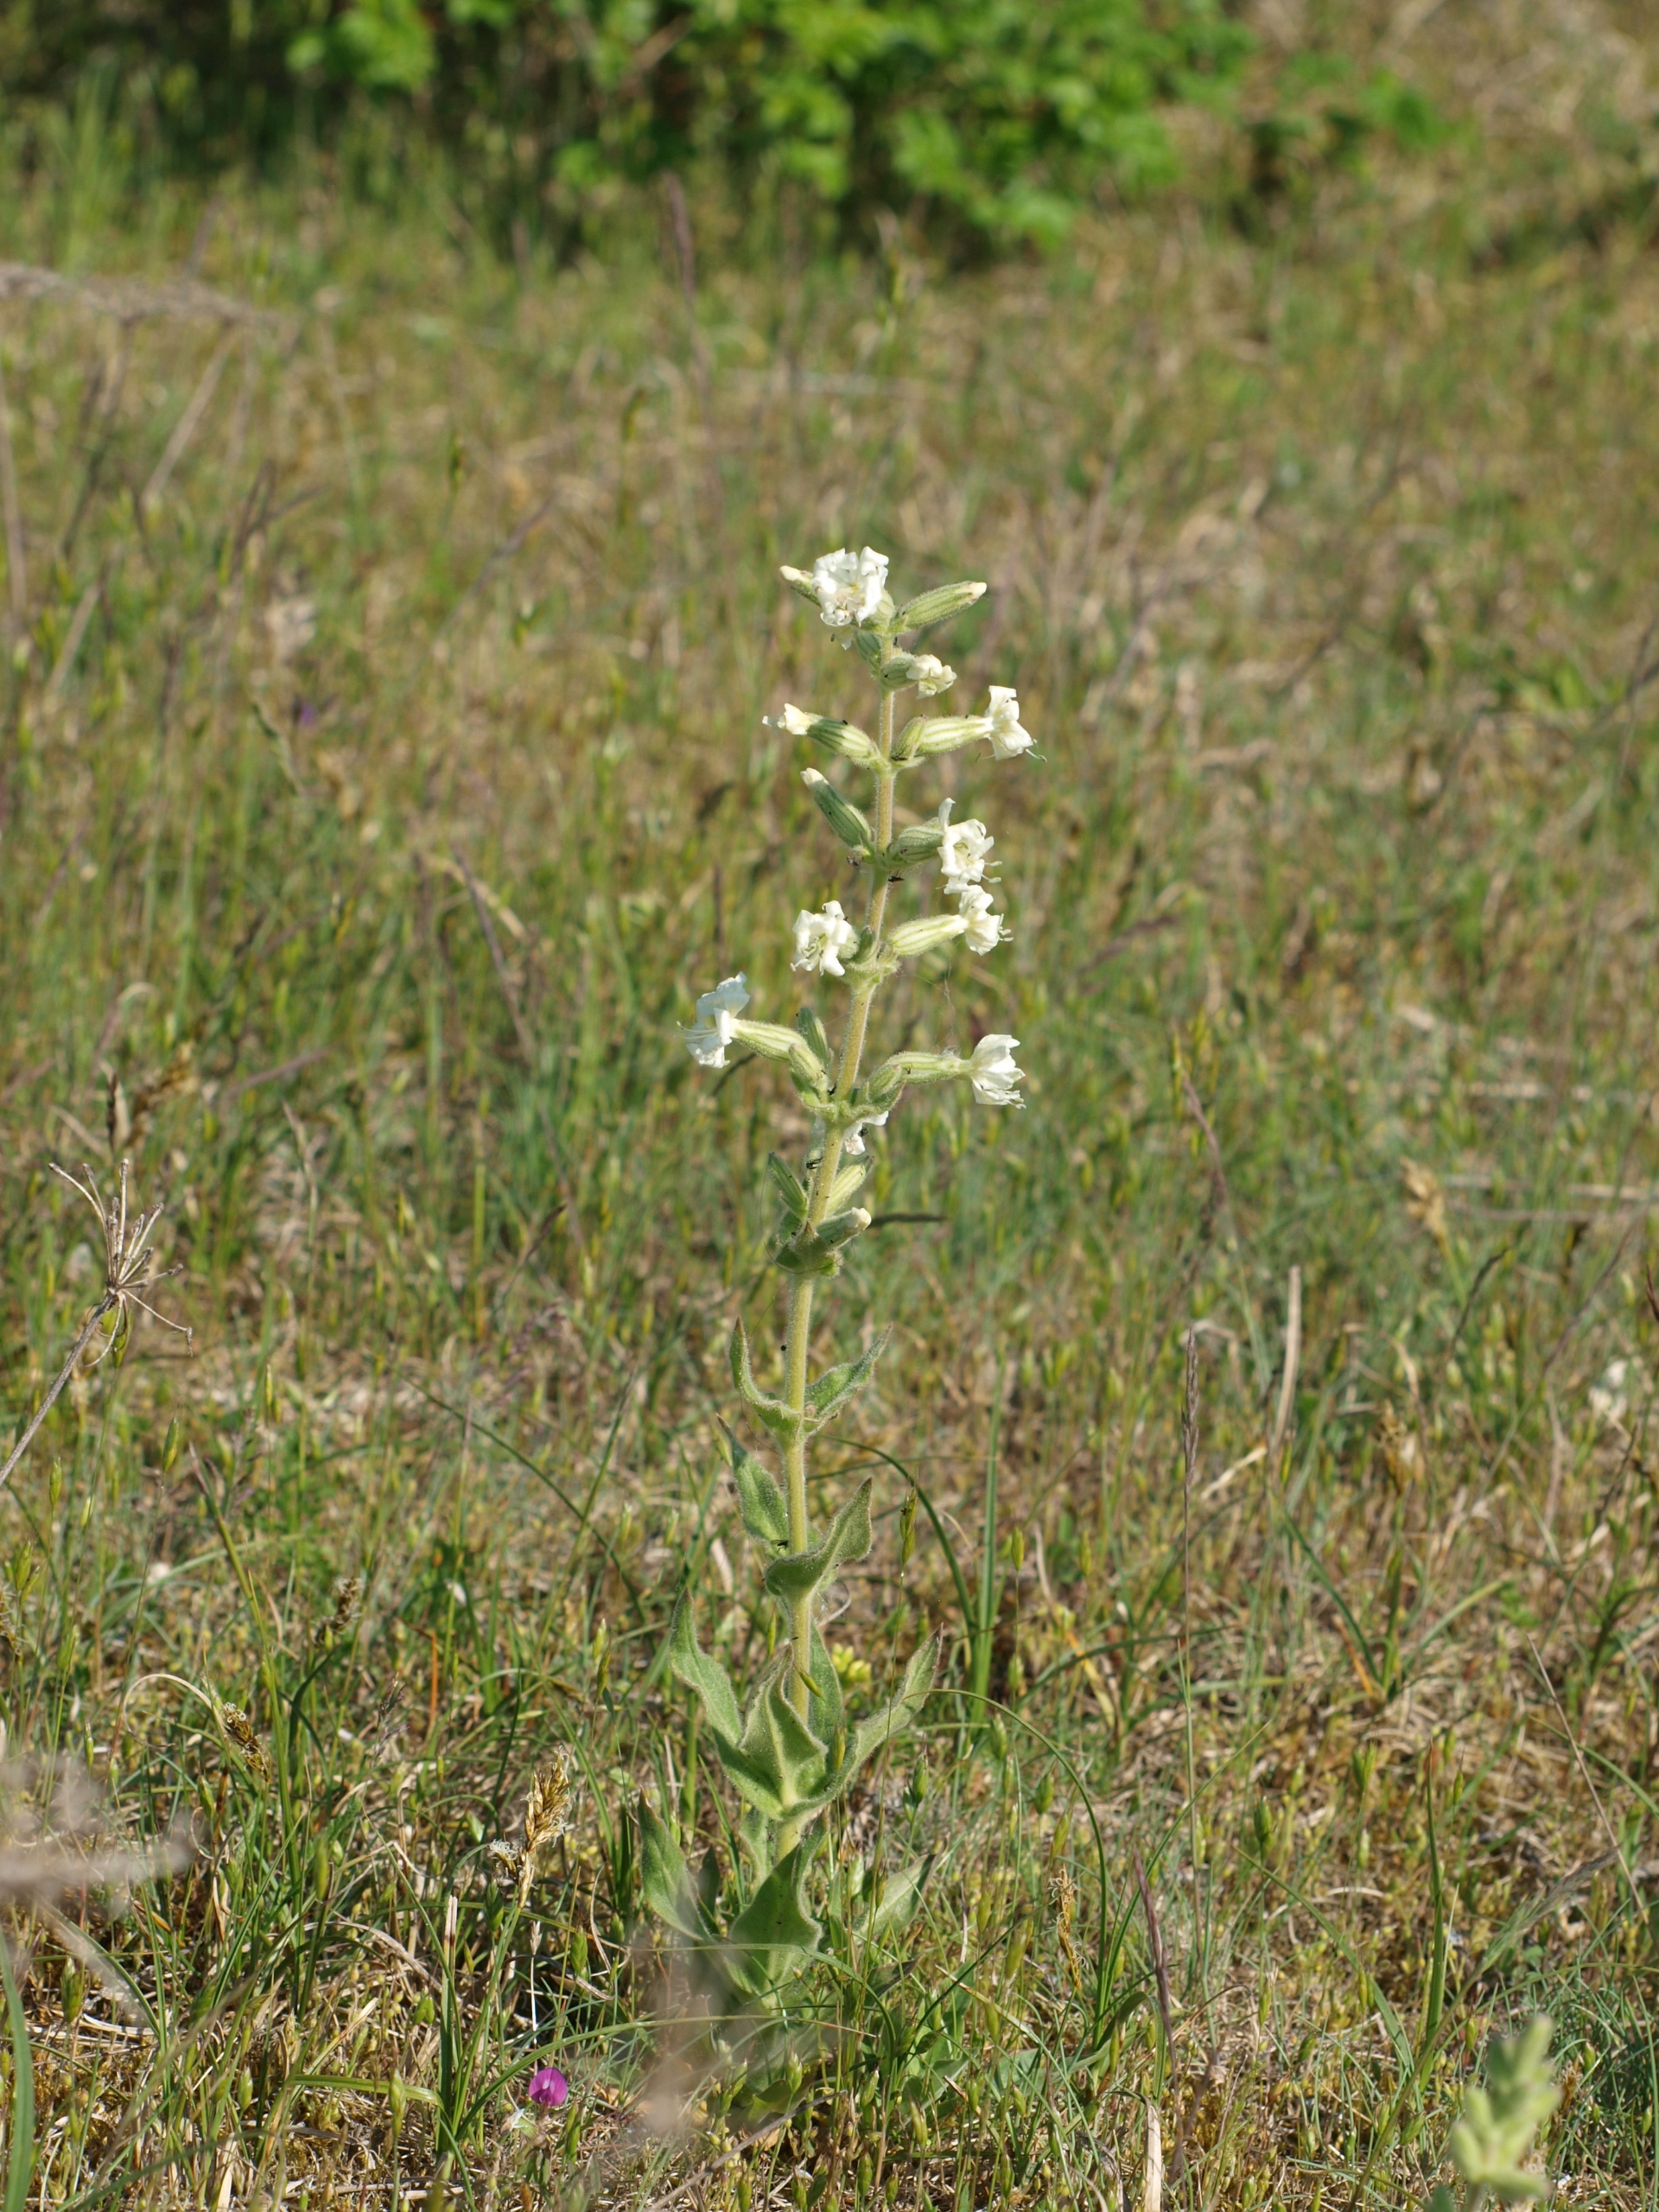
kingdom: Plantae
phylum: Tracheophyta
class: Magnoliopsida
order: Caryophyllales
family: Caryophyllaceae
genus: Silene
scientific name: Silene viscosa
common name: Klæbrig limurt
